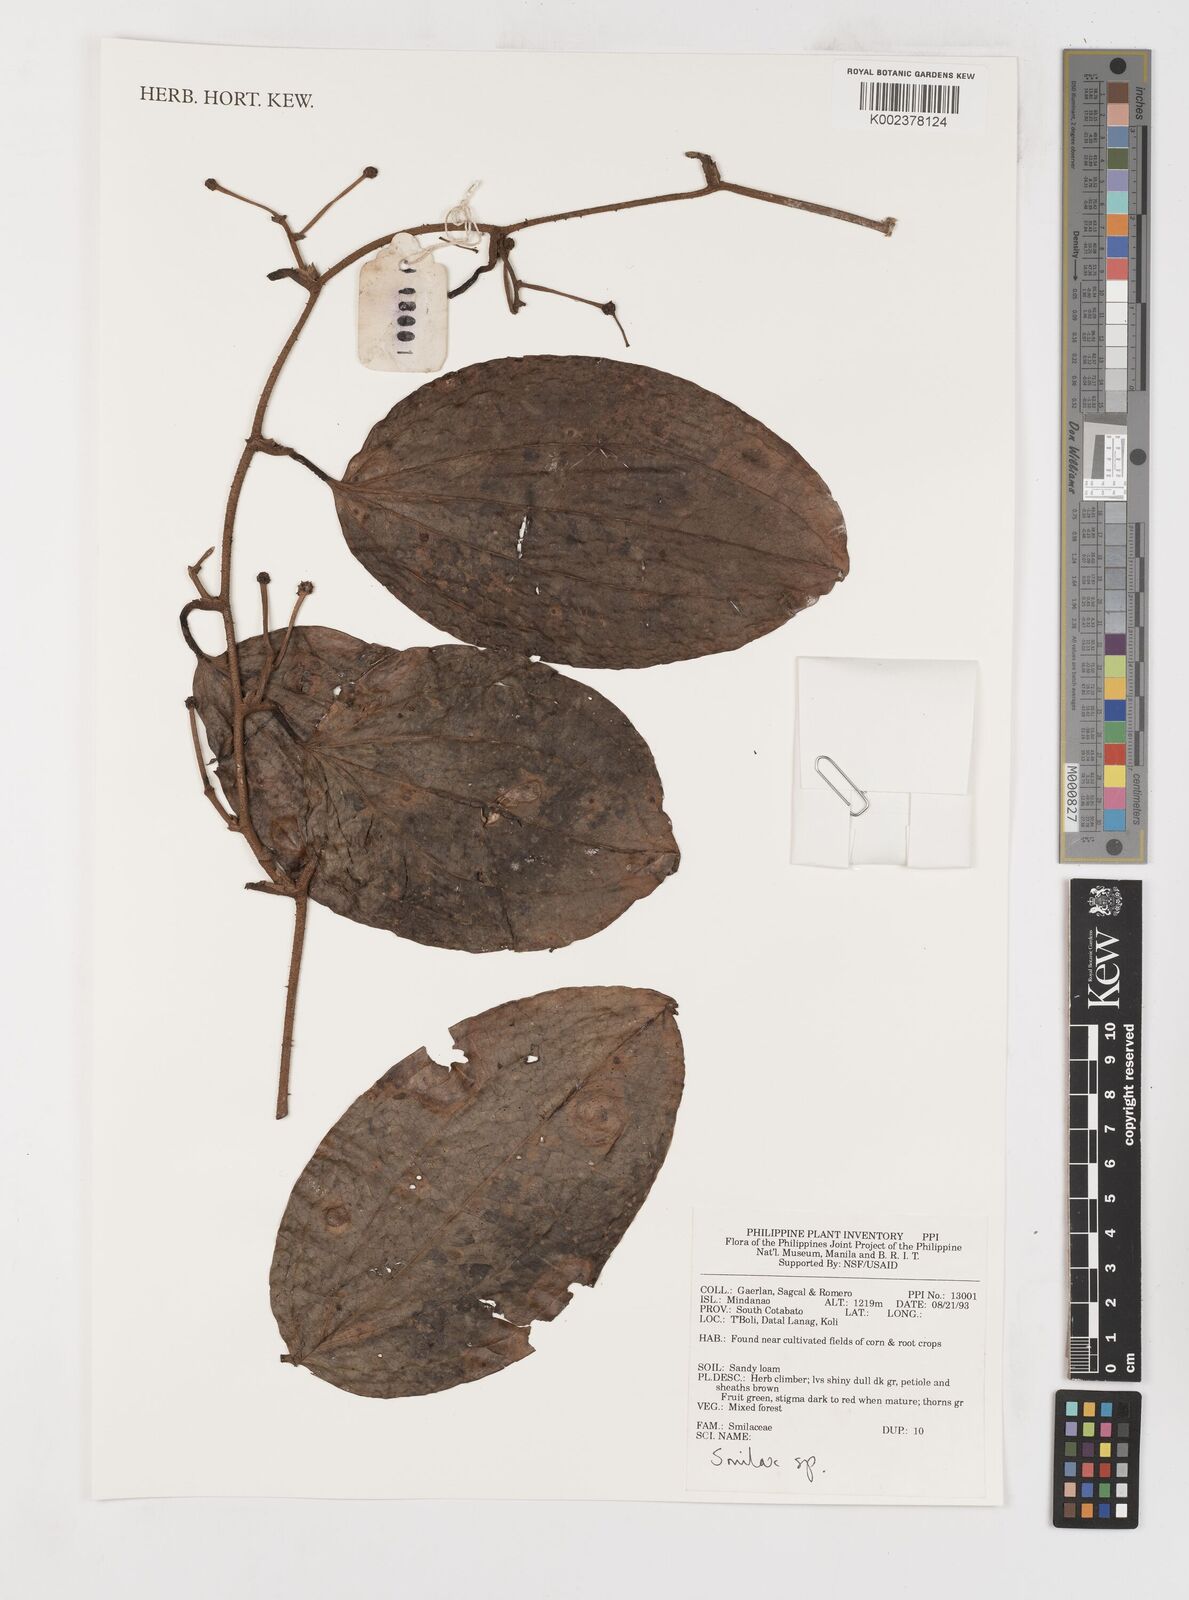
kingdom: Plantae
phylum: Tracheophyta
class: Liliopsida
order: Liliales
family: Smilacaceae
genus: Smilax
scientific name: Smilax
